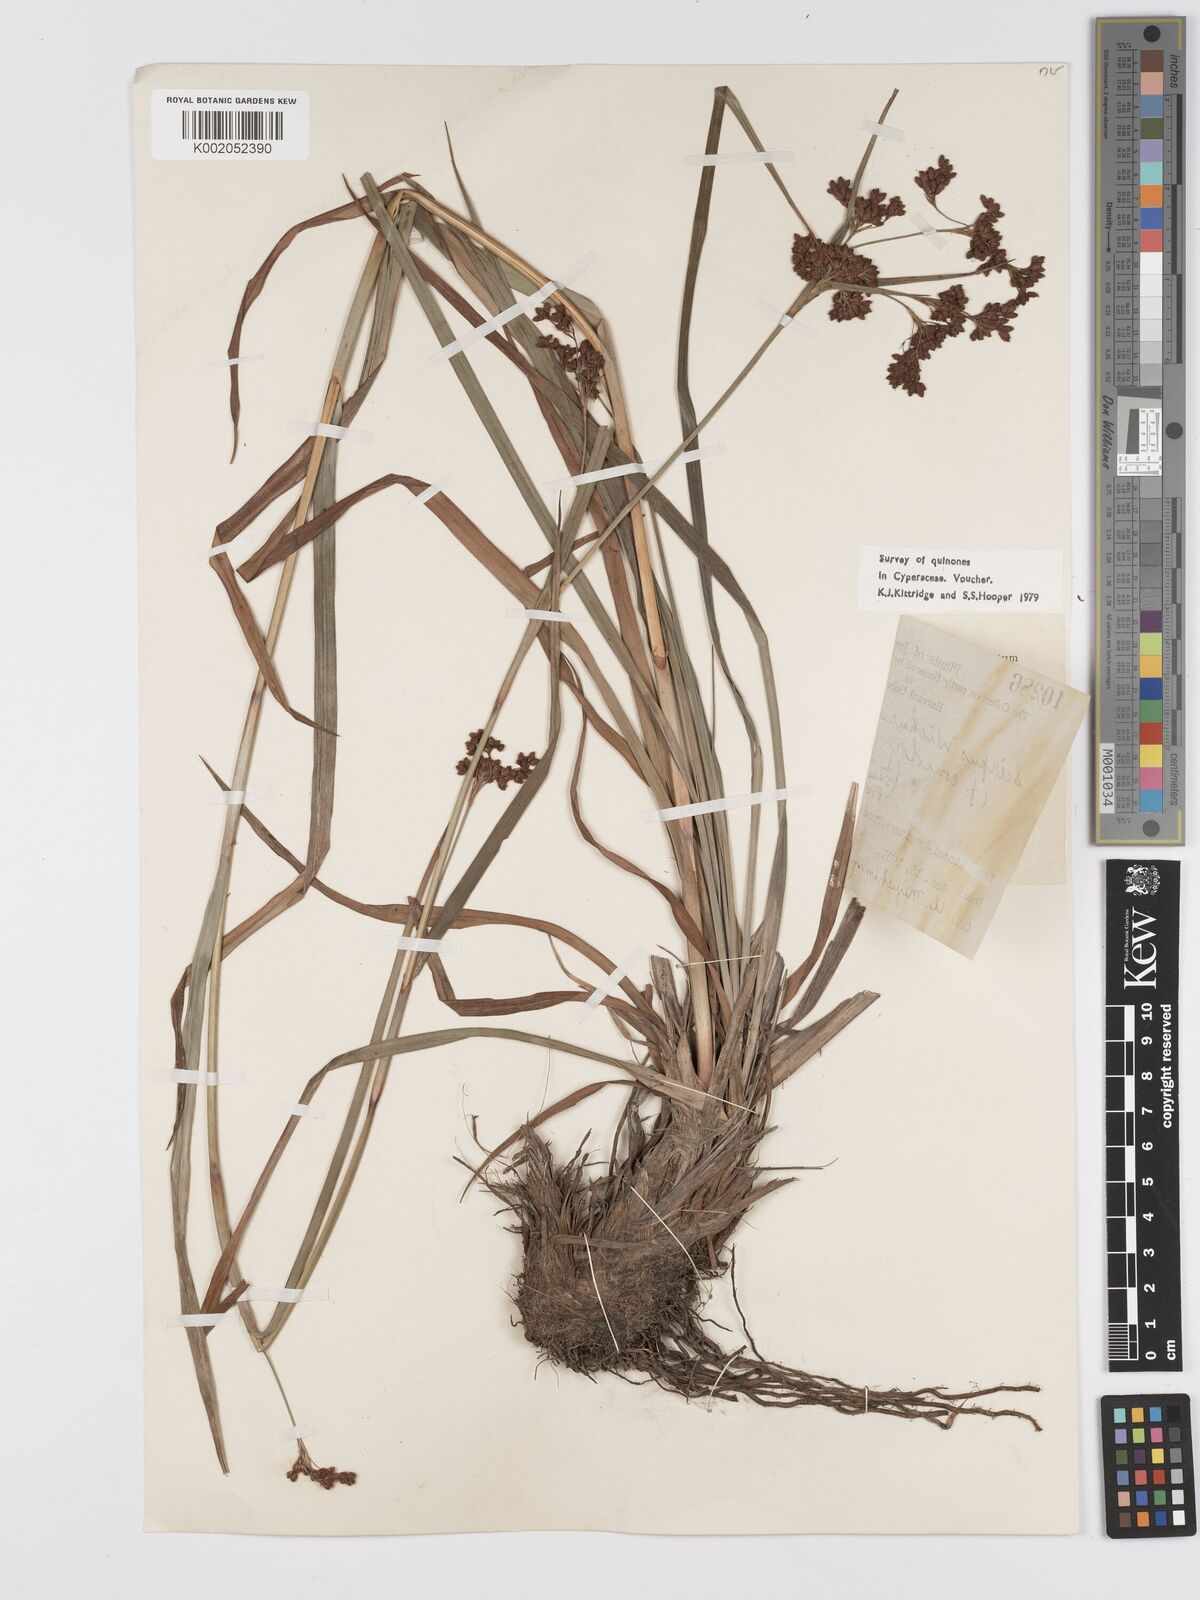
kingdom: Plantae
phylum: Tracheophyta
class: Liliopsida
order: Poales
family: Cyperaceae
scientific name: Cyperaceae
